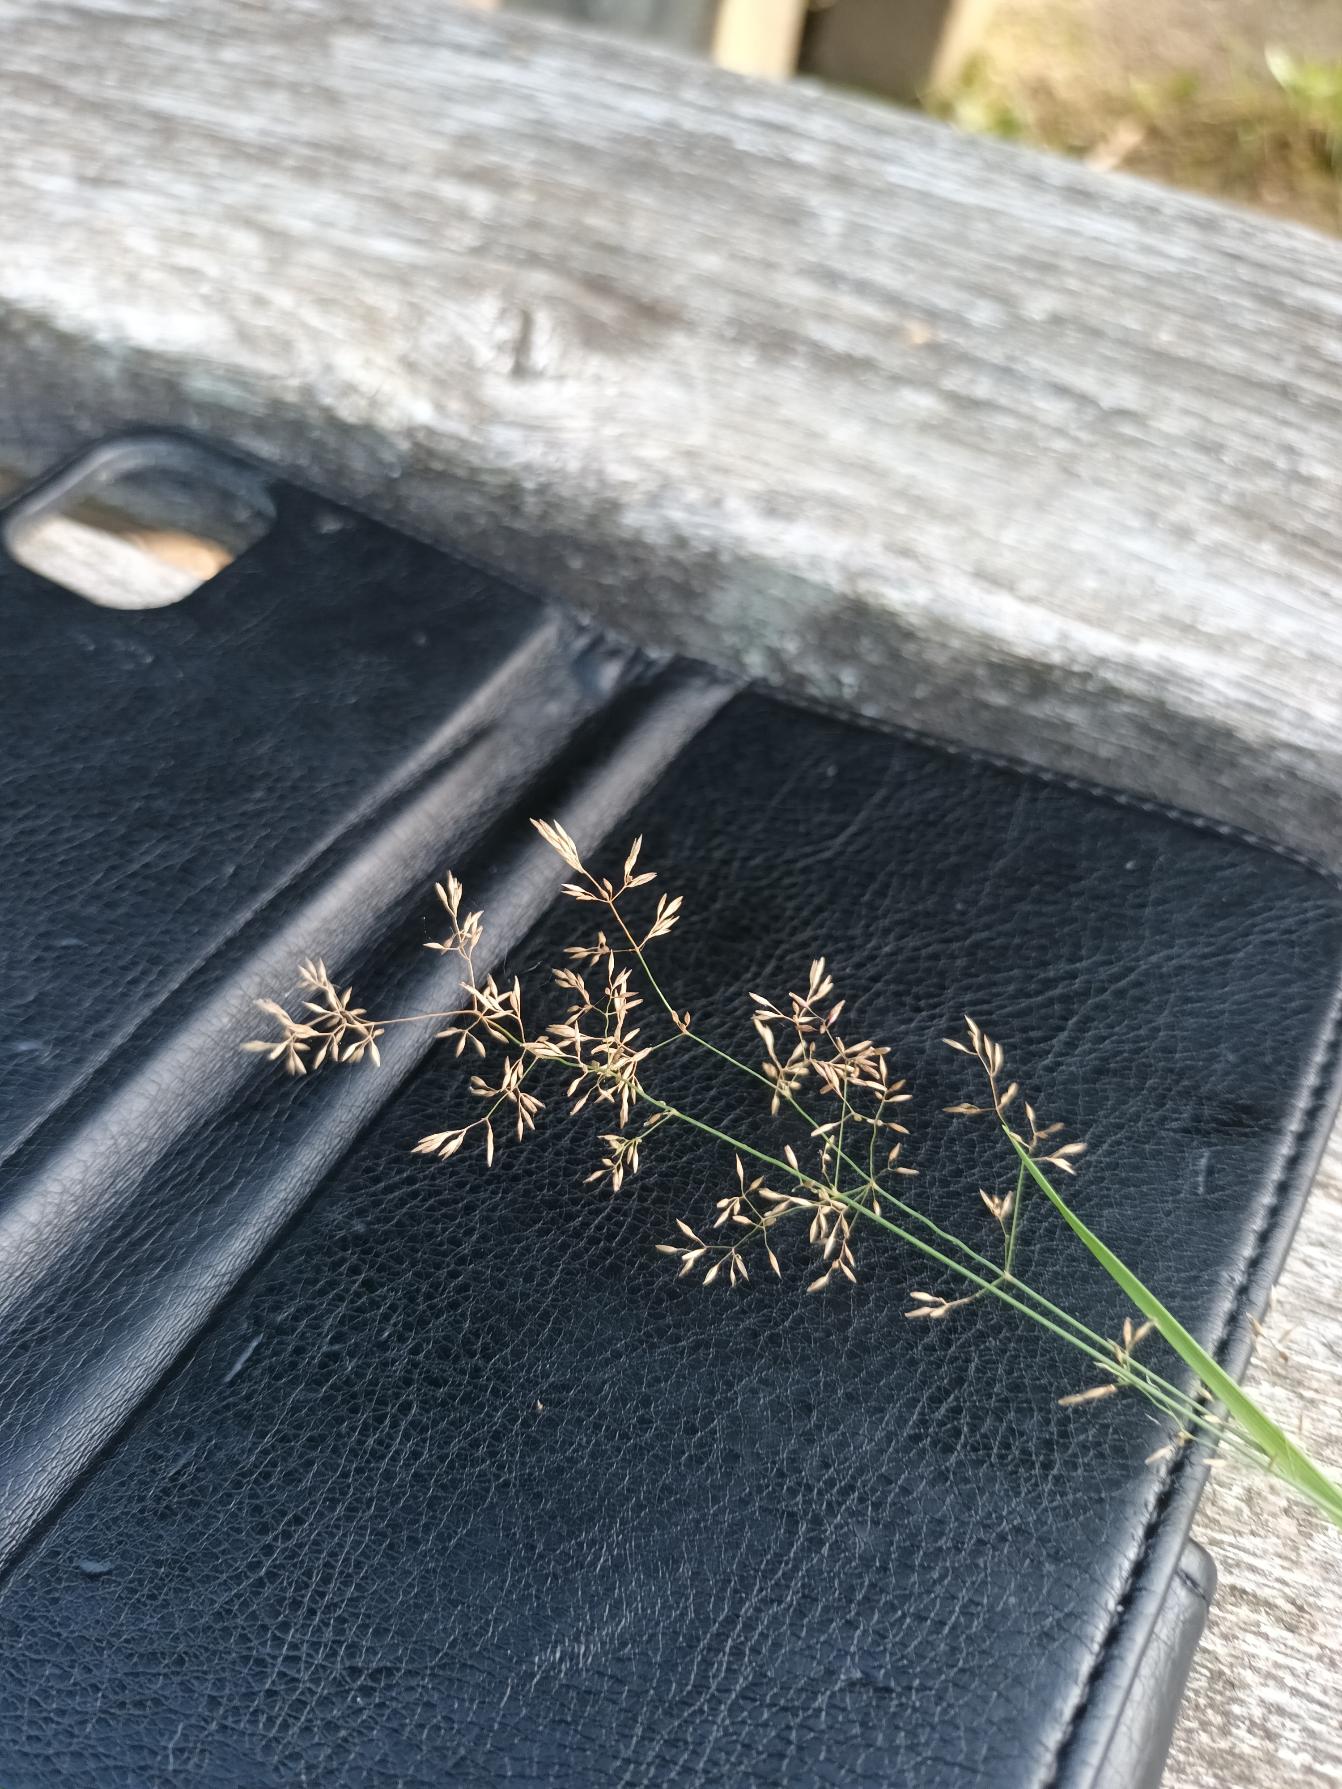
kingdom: Plantae
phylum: Tracheophyta
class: Liliopsida
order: Poales
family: Poaceae
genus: Agrostis
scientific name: Agrostis capillaris
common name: Almindelig hvene
